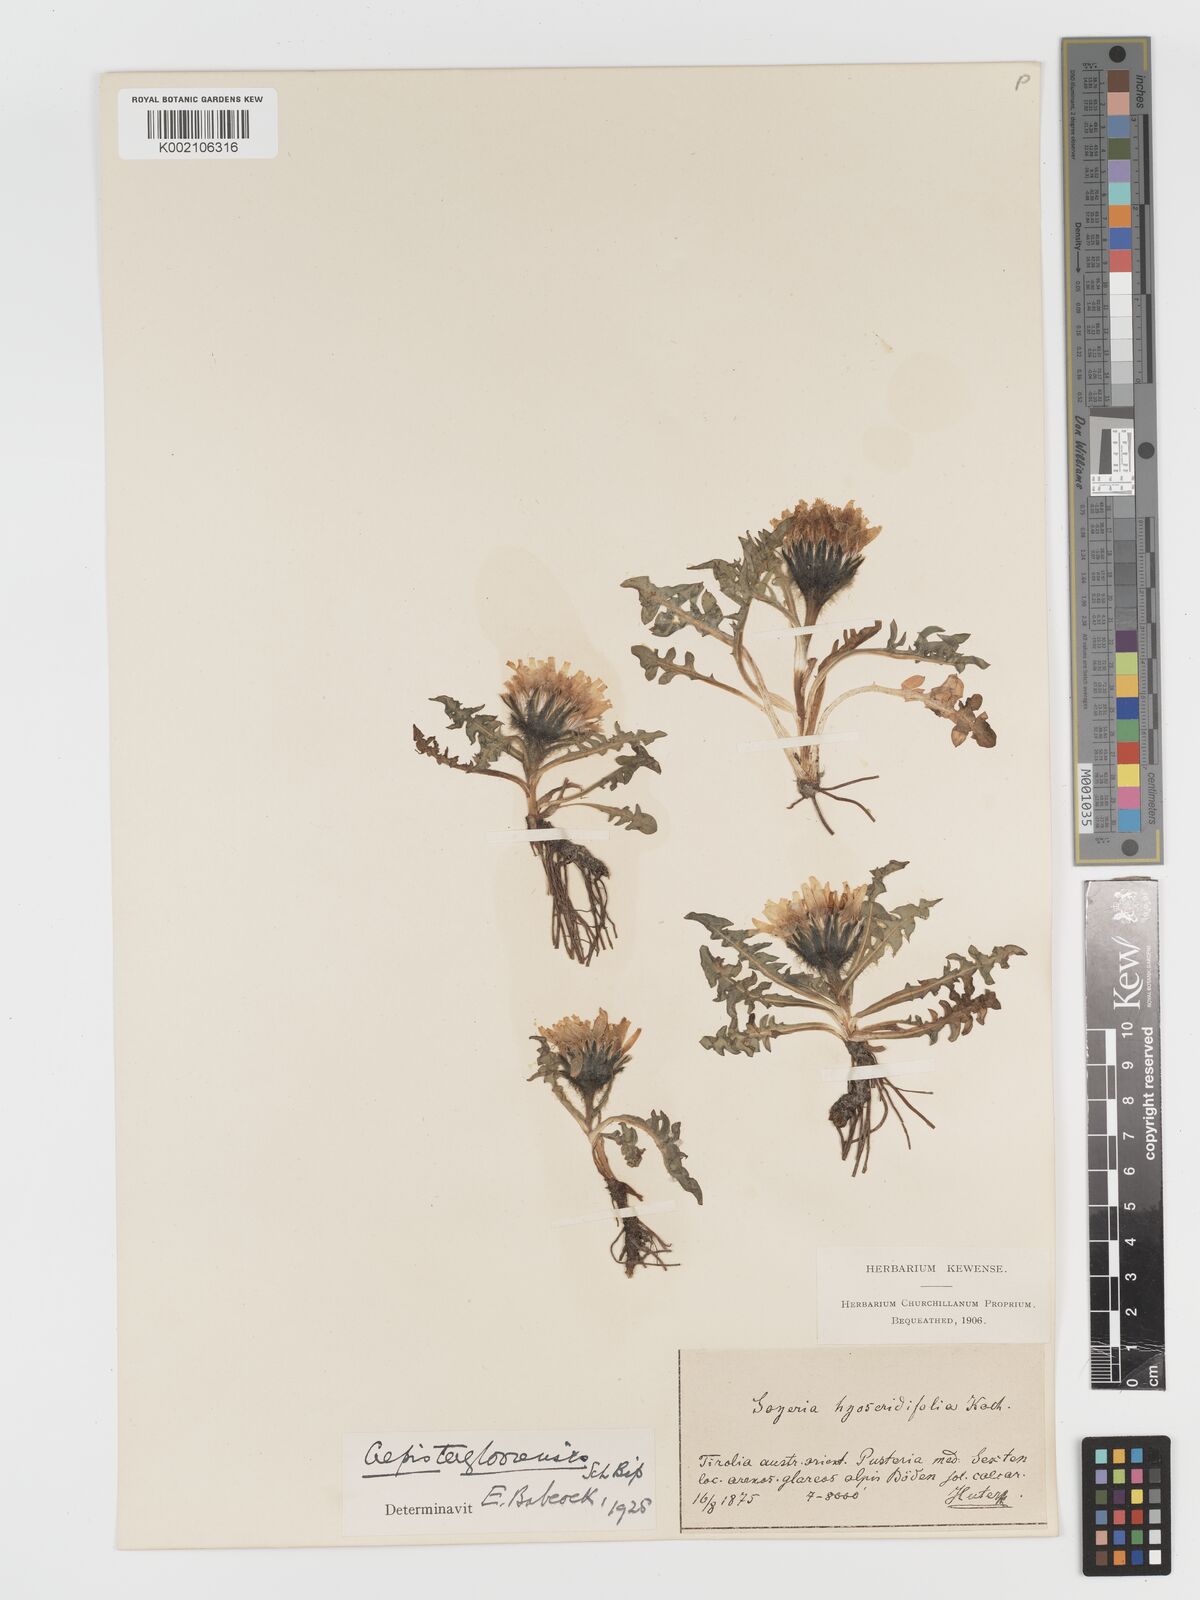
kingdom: Plantae
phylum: Tracheophyta
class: Magnoliopsida
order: Asterales
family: Asteraceae
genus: Crepis
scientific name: Crepis terglouensis
